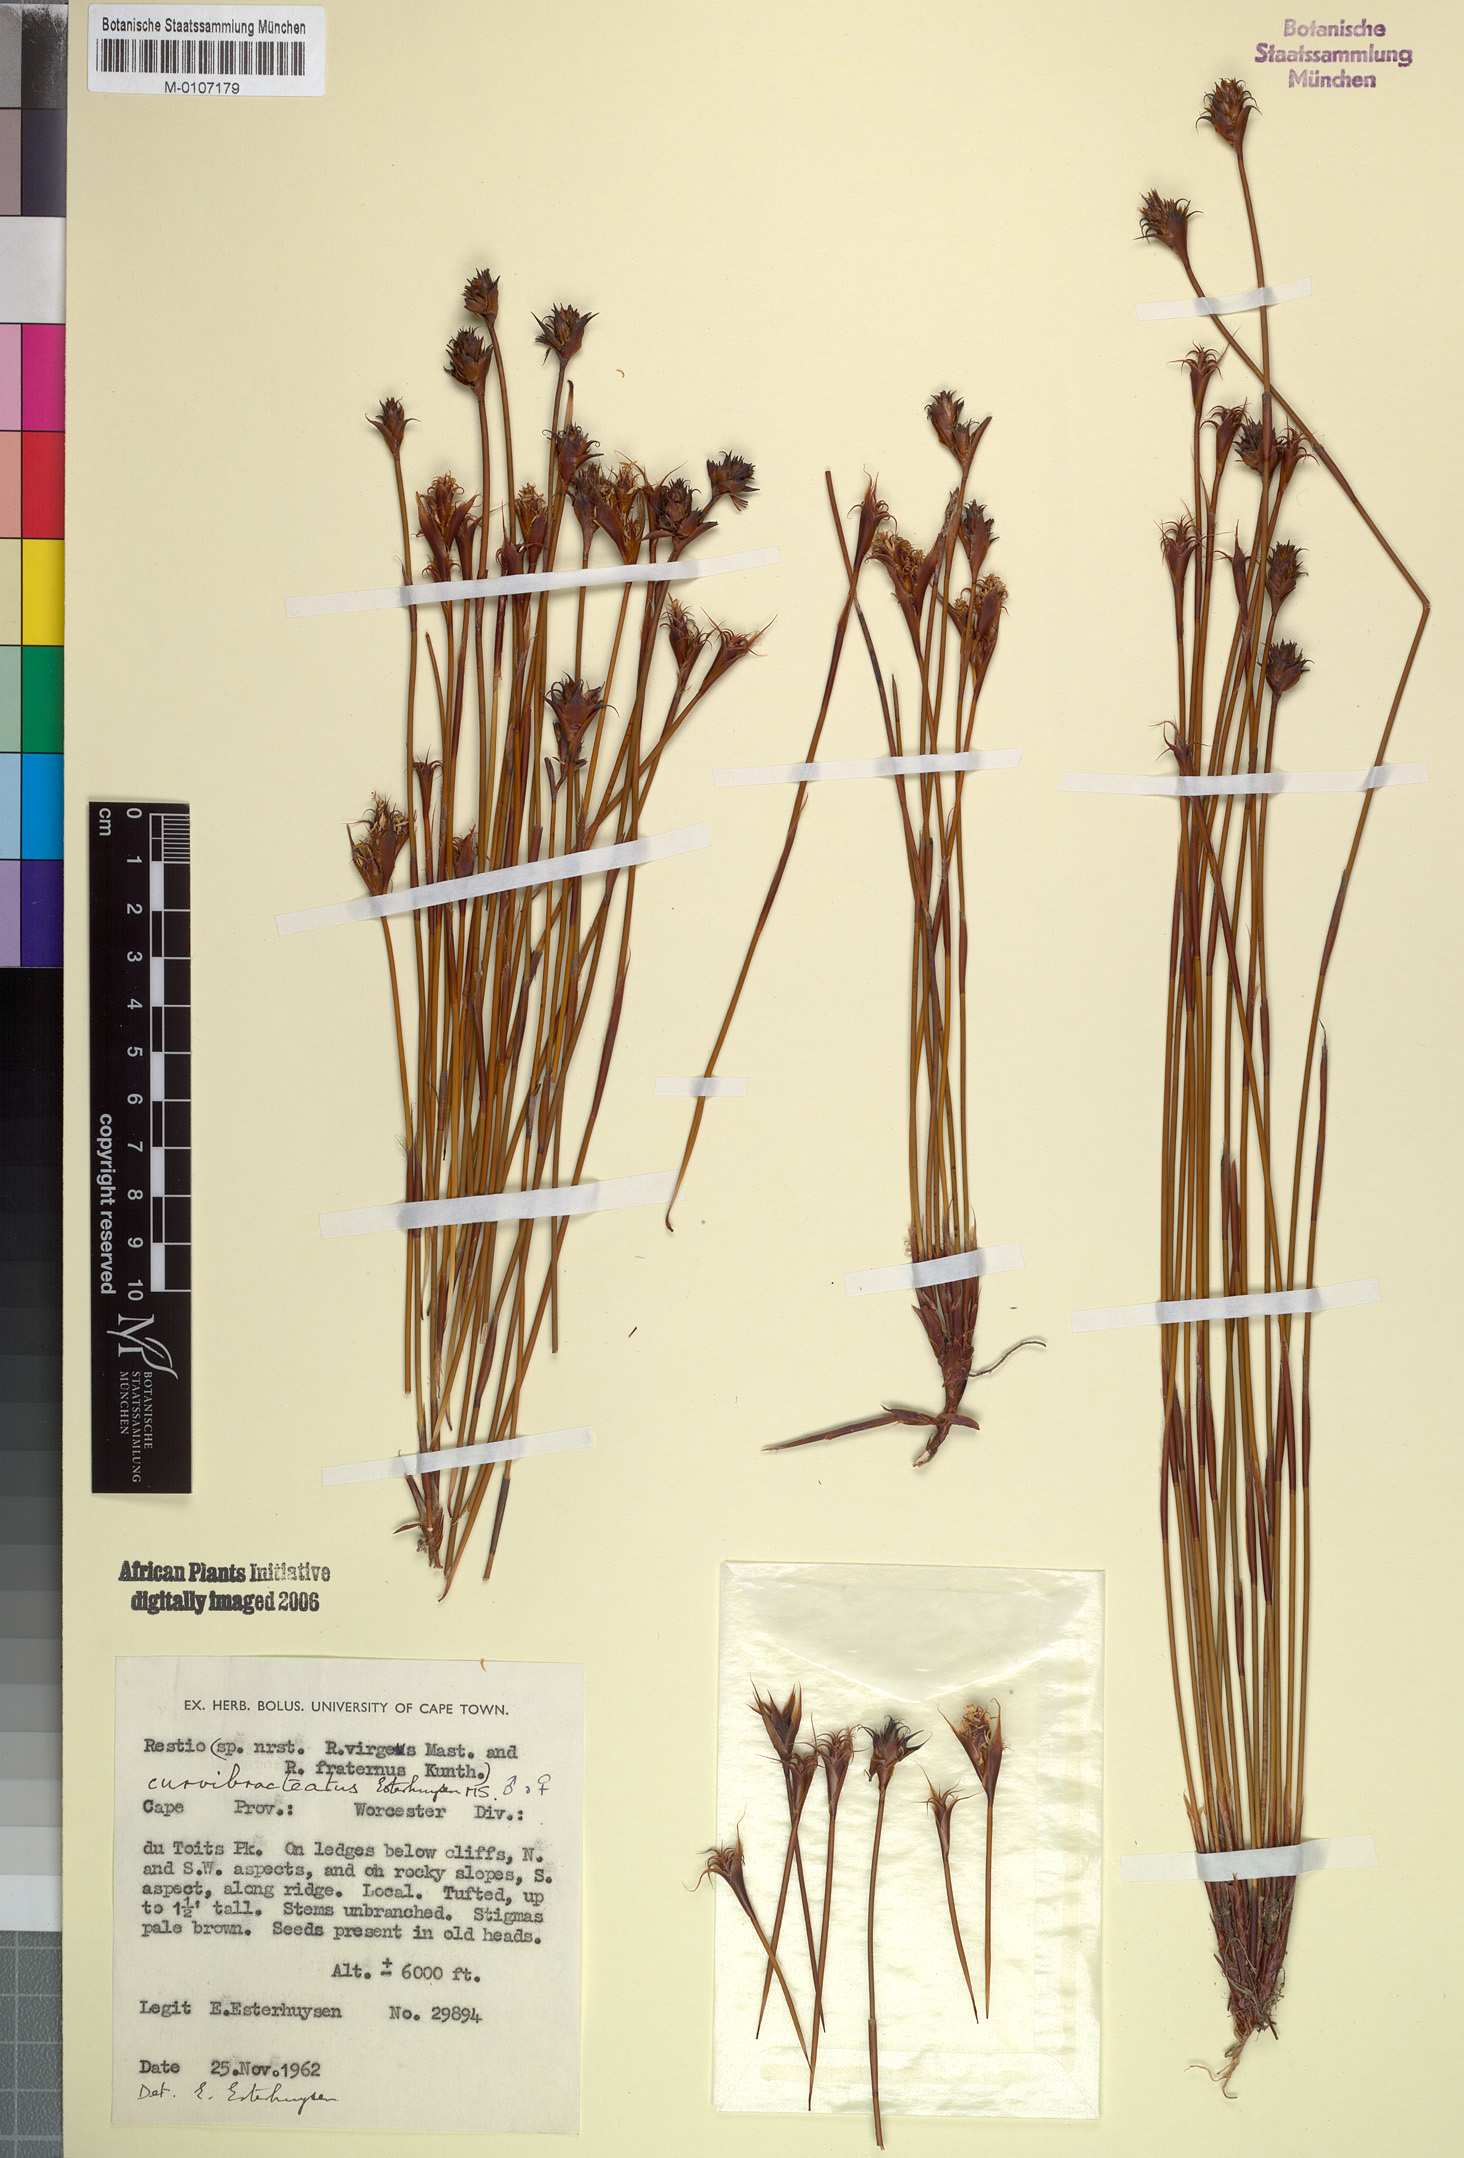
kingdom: Plantae
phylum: Tracheophyta
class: Liliopsida
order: Poales
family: Restionaceae
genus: Restio
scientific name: Restio curvibracteatus
